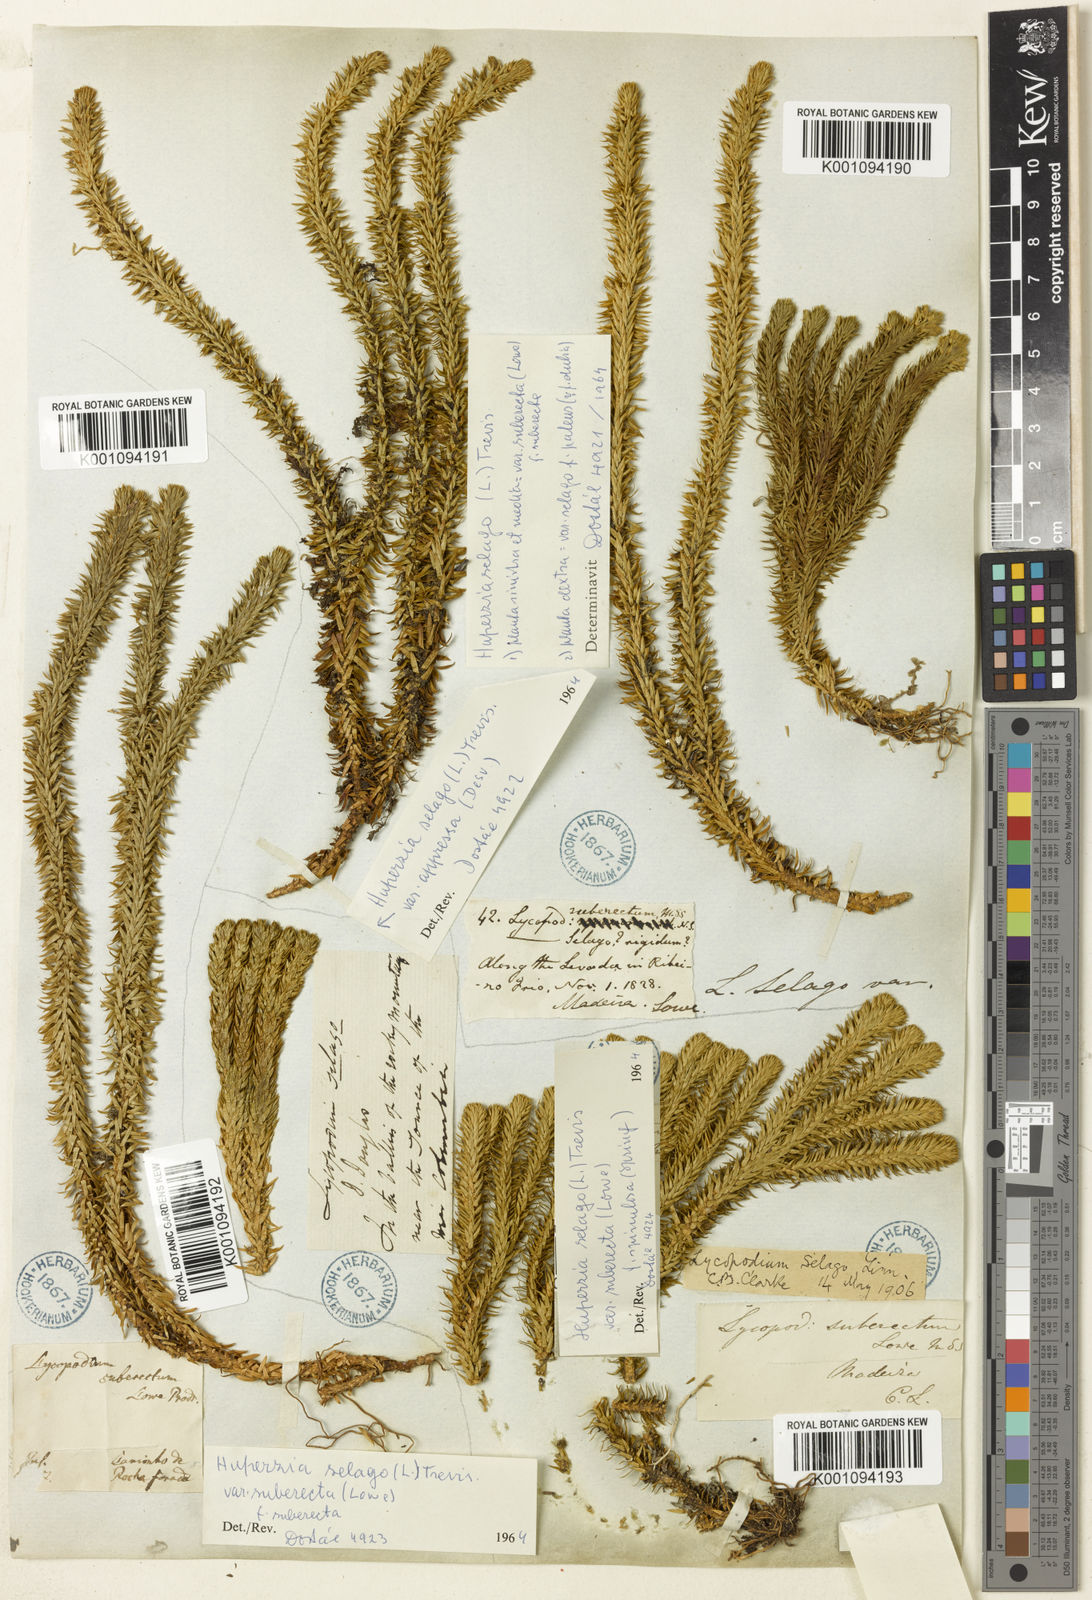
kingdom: Plantae
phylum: Tracheophyta
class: Lycopodiopsida
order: Lycopodiales
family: Lycopodiaceae
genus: Lycopodium
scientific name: Lycopodium
